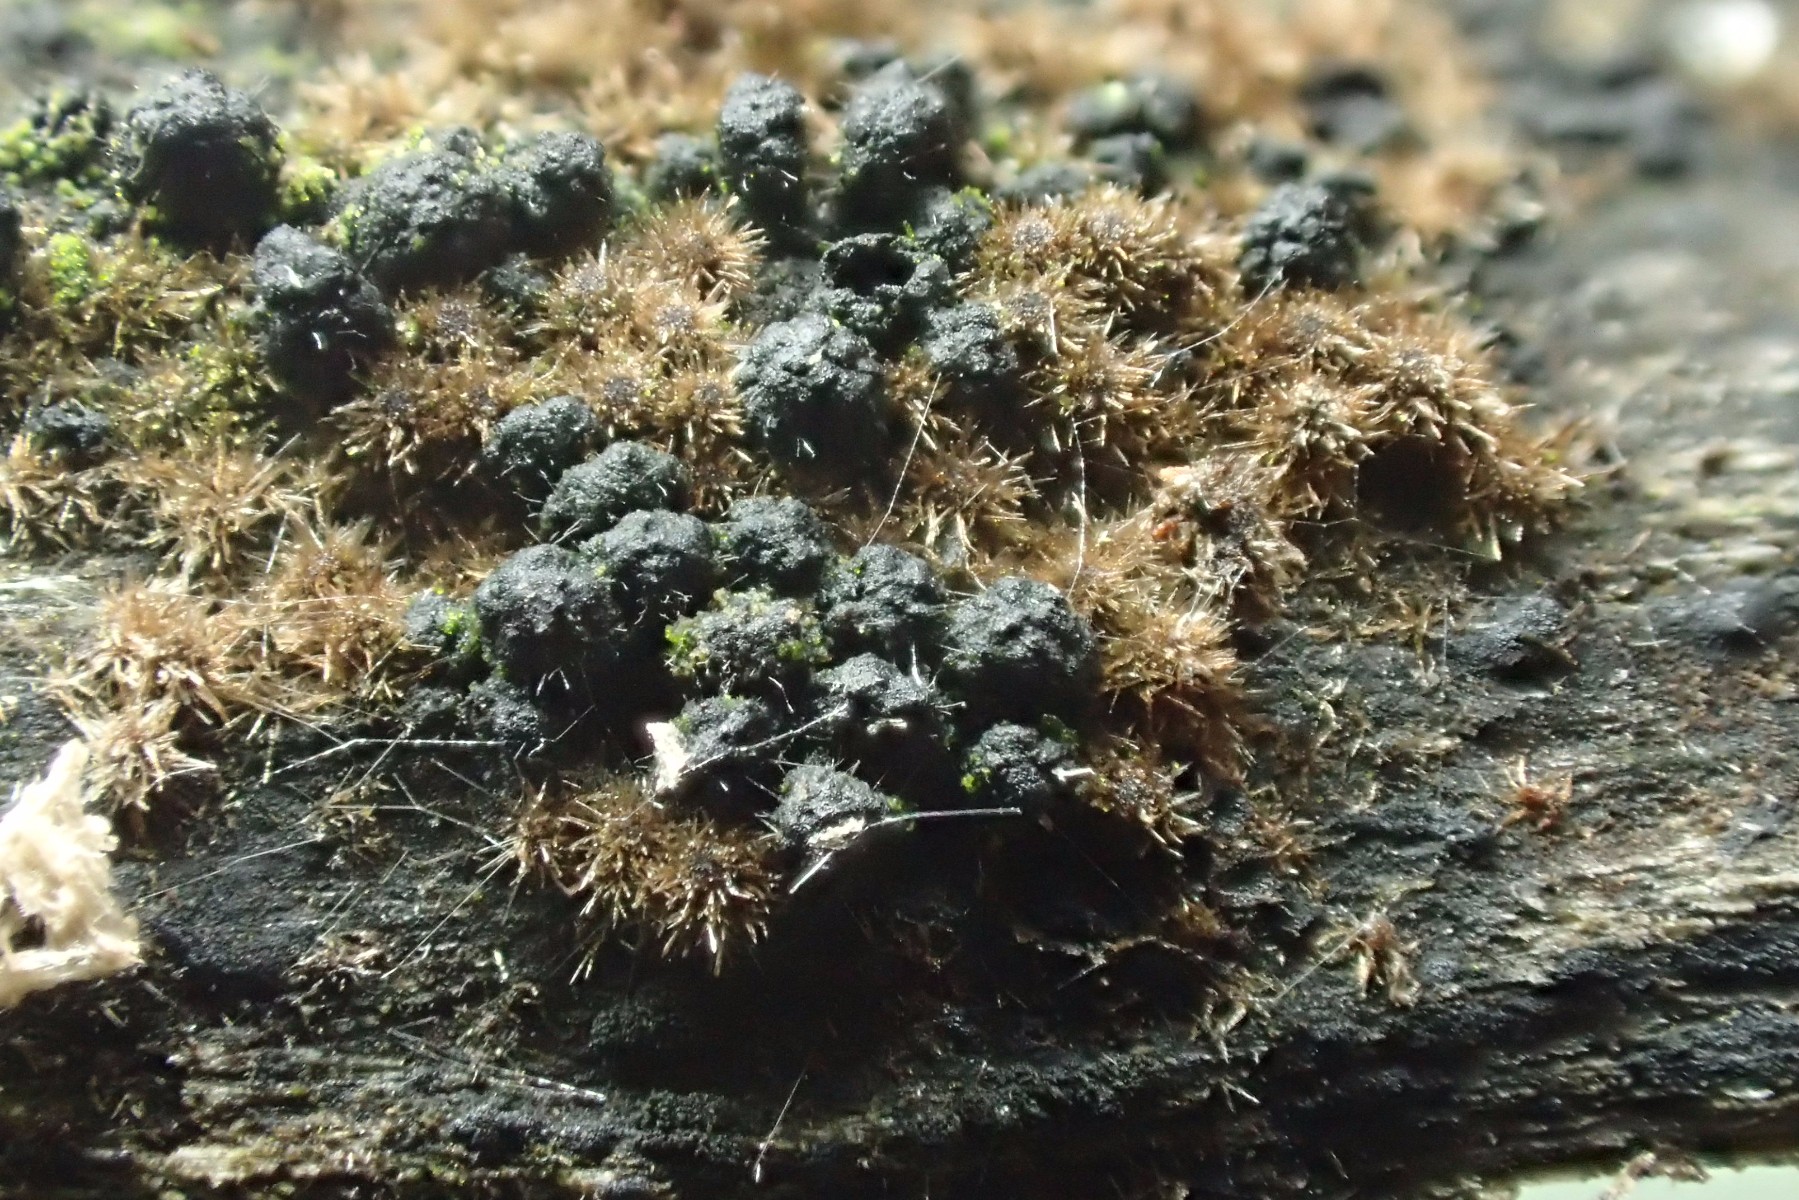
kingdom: Fungi
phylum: Ascomycota
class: Sordariomycetes
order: Coronophorales
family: Bertiaceae
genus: Bertia
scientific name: Bertia moriformis
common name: almindelig morbærkerne
